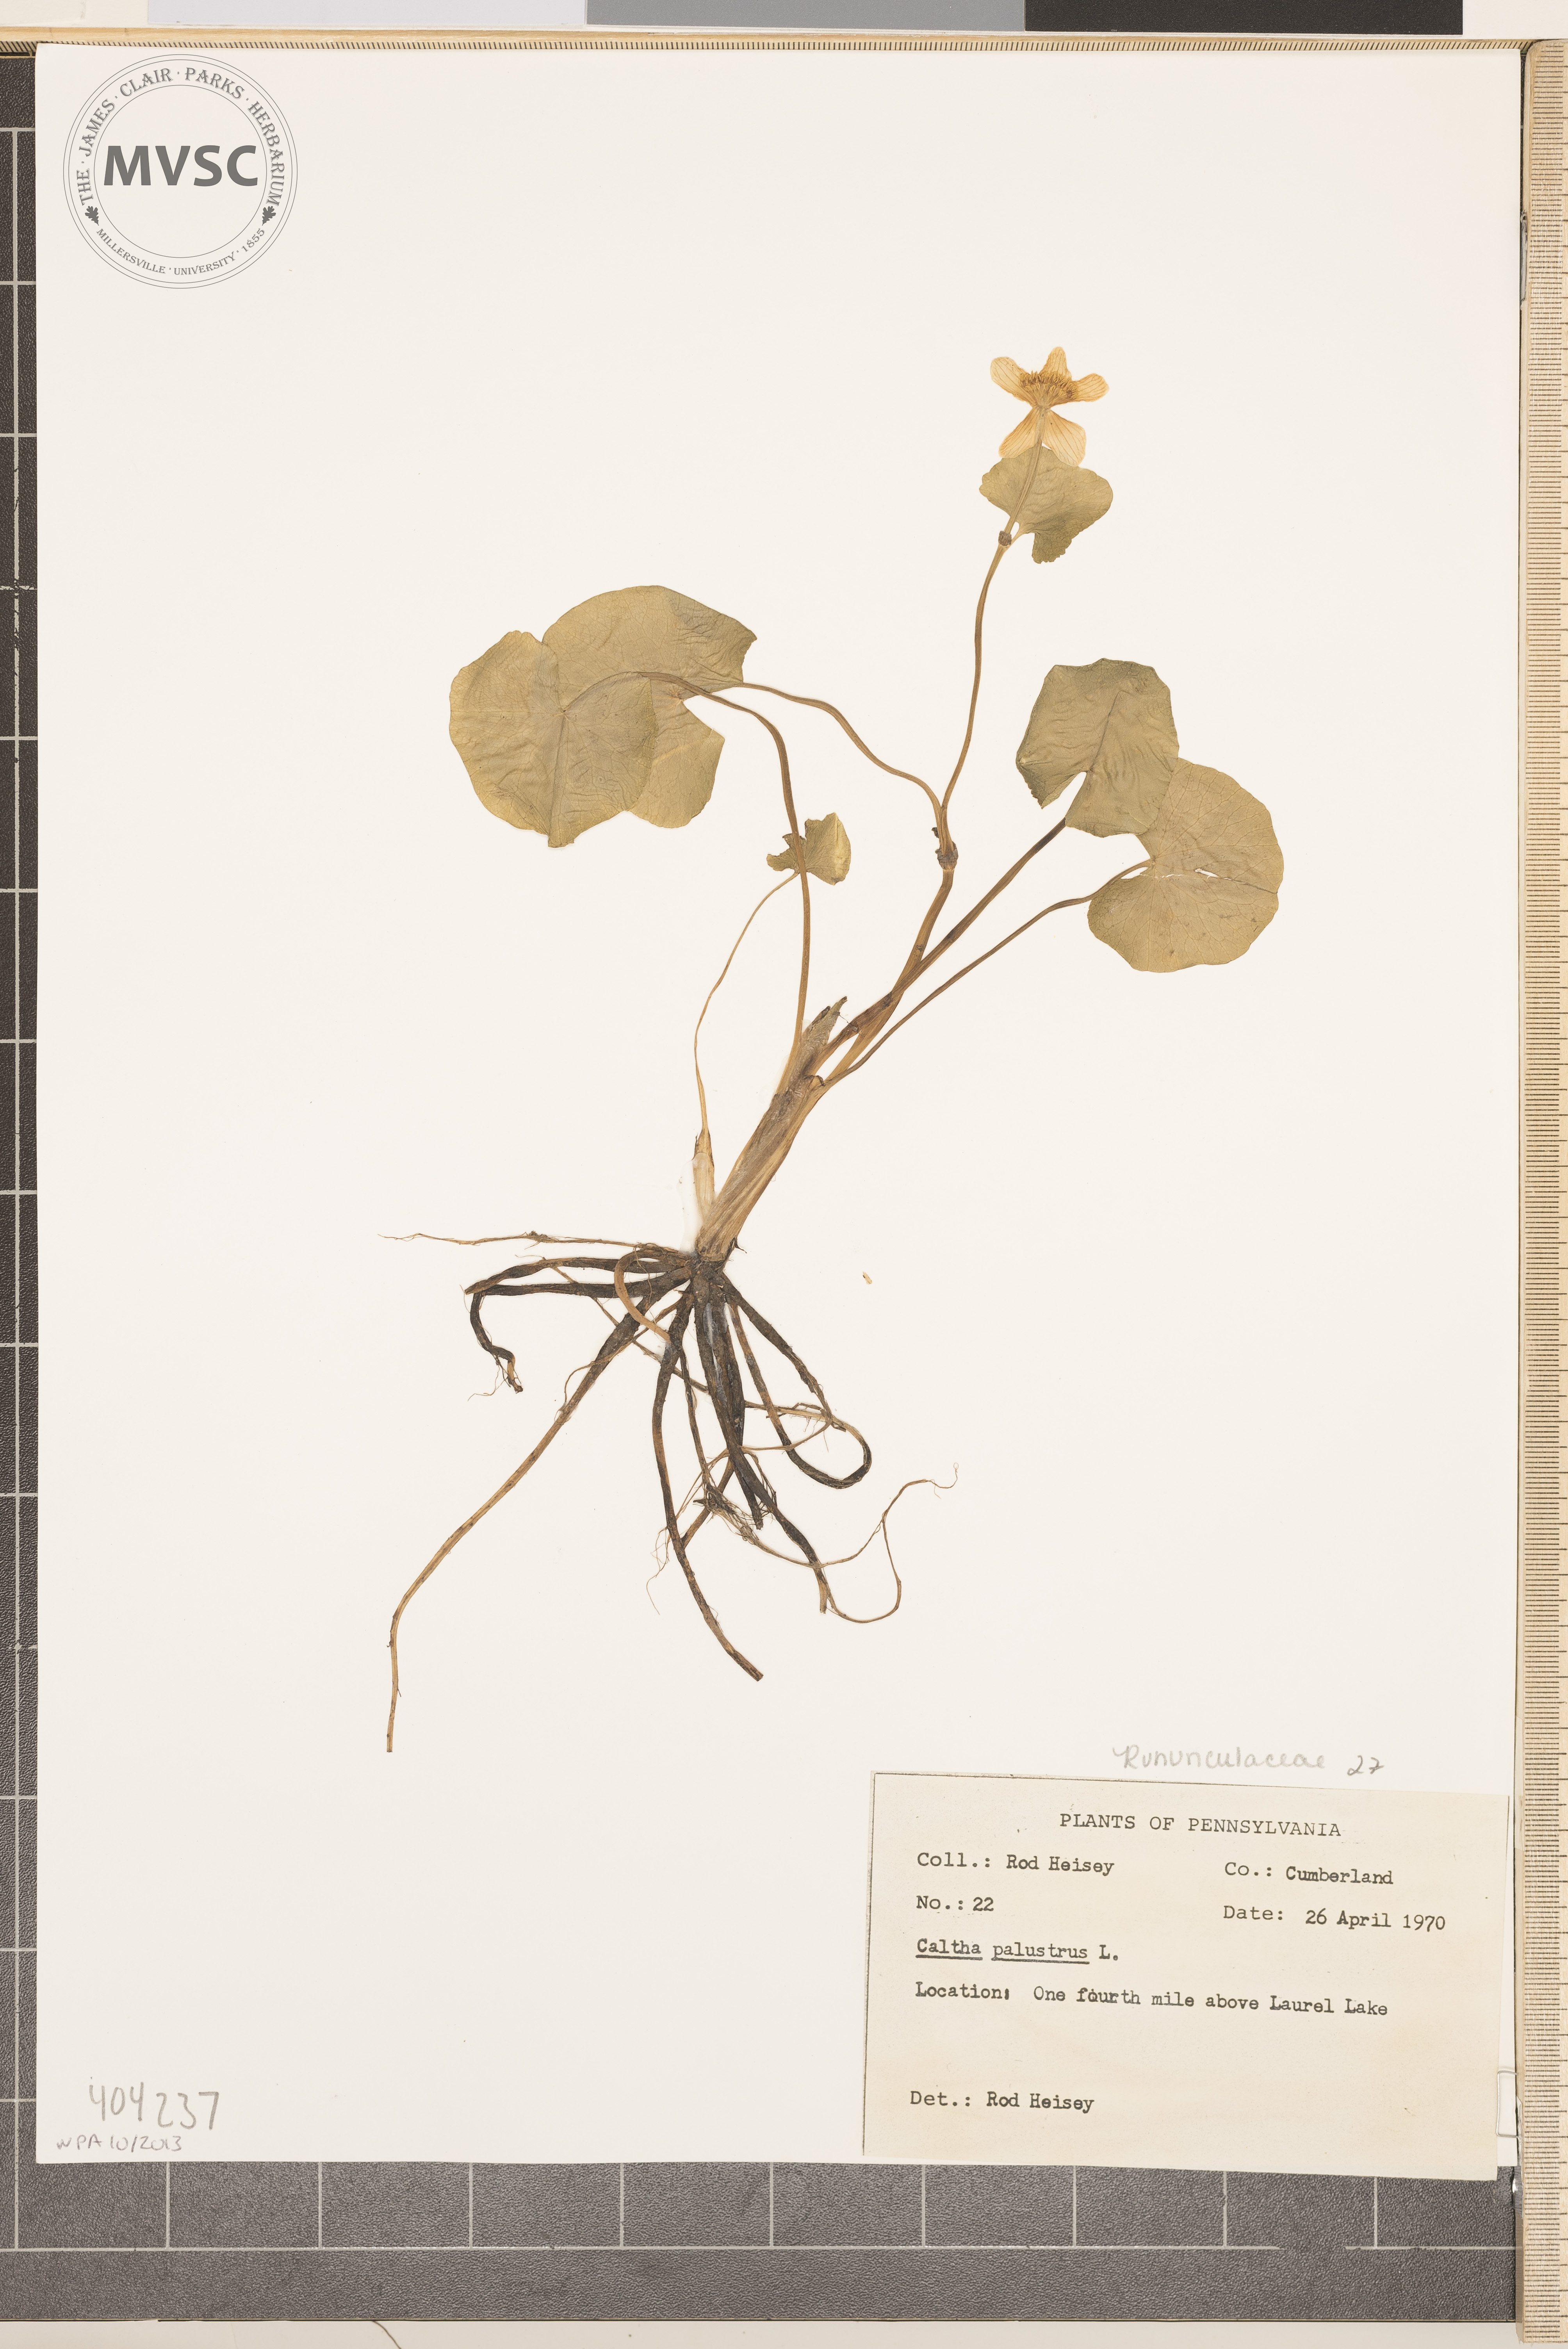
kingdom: Plantae
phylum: Tracheophyta
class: Magnoliopsida
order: Ranunculales
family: Ranunculaceae
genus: Caltha
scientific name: Caltha palustris
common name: Marsh marigold
